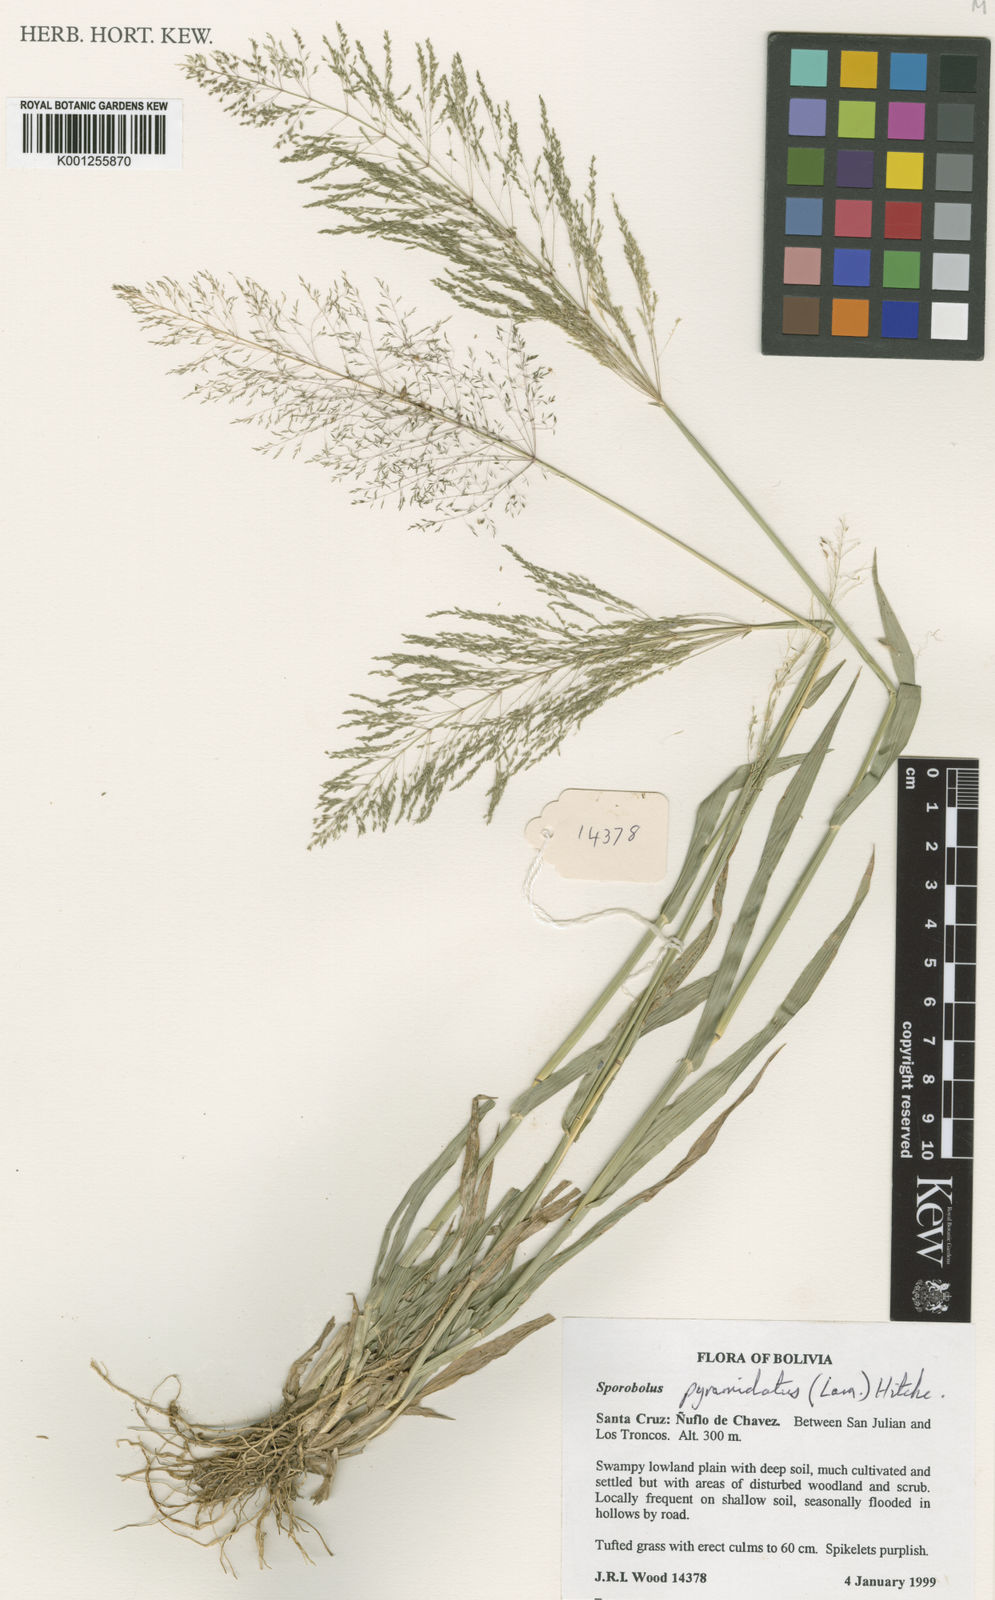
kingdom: Plantae
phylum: Tracheophyta
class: Liliopsida
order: Poales
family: Poaceae
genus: Sporobolus
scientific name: Sporobolus pyramidatus
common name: Whorled dropseed
